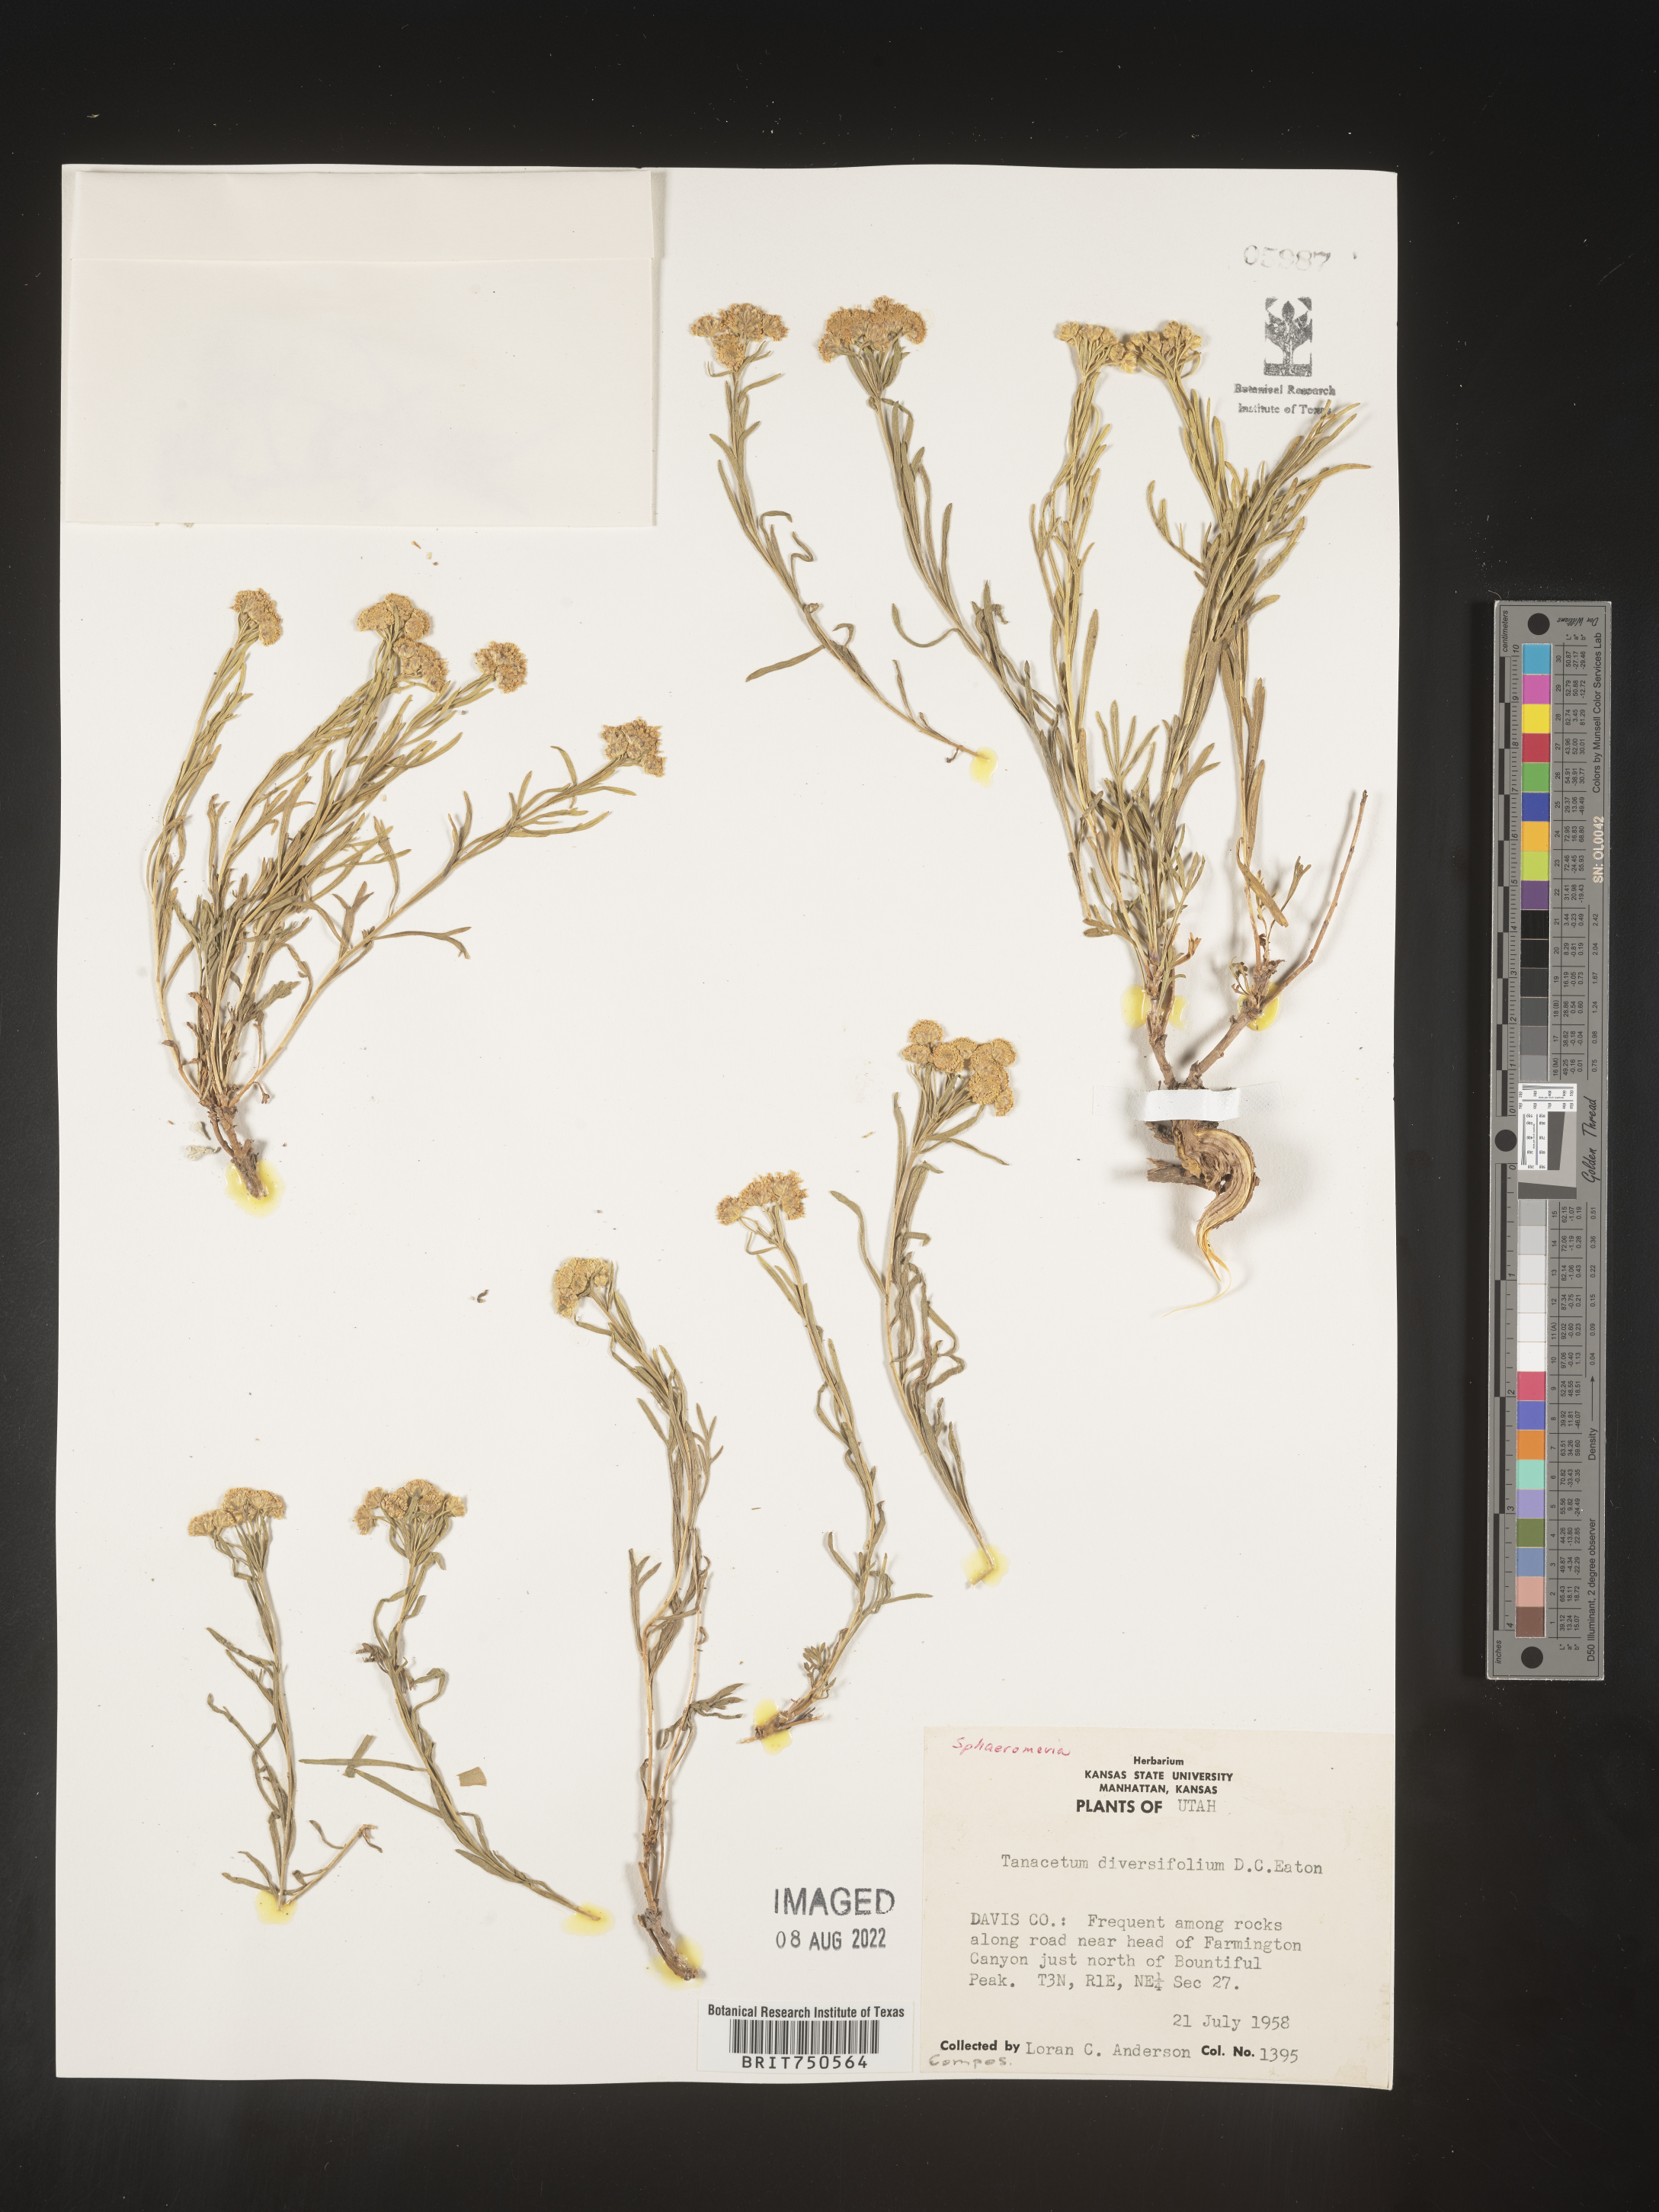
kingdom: Plantae
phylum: Tracheophyta
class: Magnoliopsida
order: Asterales
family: Asteraceae
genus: Artemisia
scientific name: Artemisia
